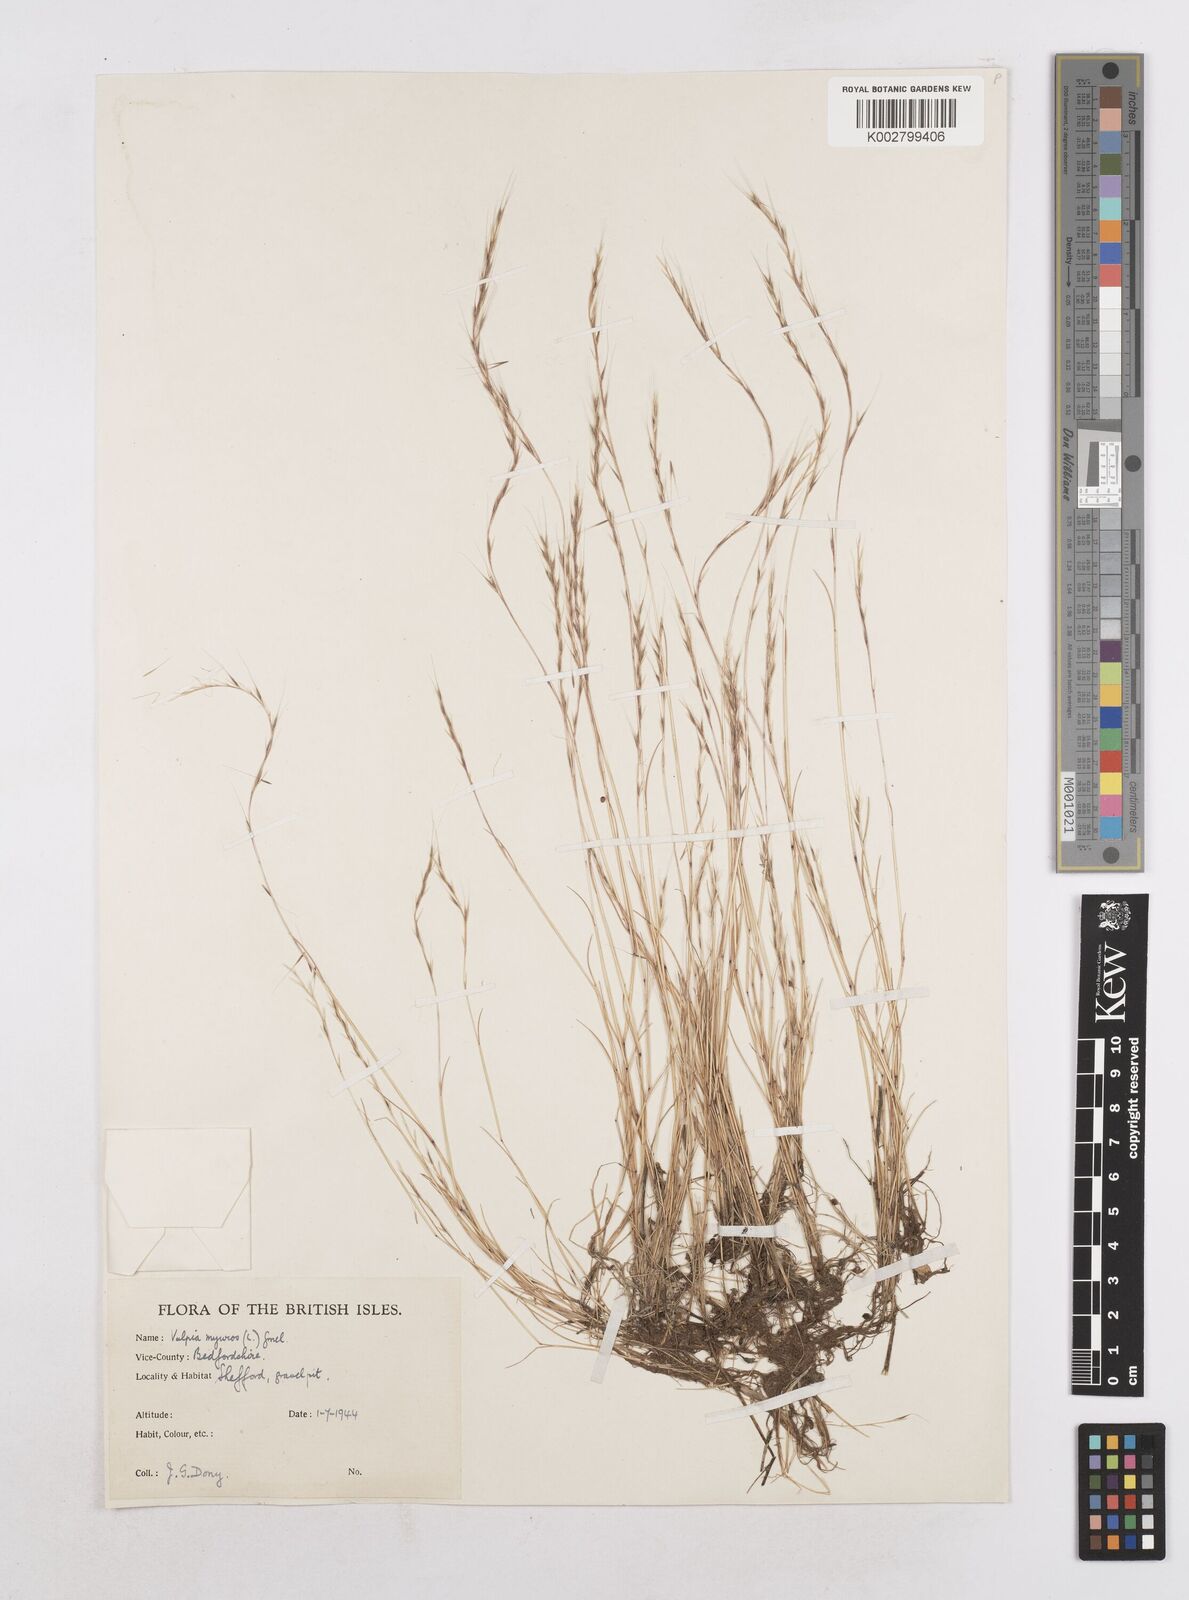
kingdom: Plantae
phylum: Tracheophyta
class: Liliopsida
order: Poales
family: Poaceae
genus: Festuca
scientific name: Festuca myuros
